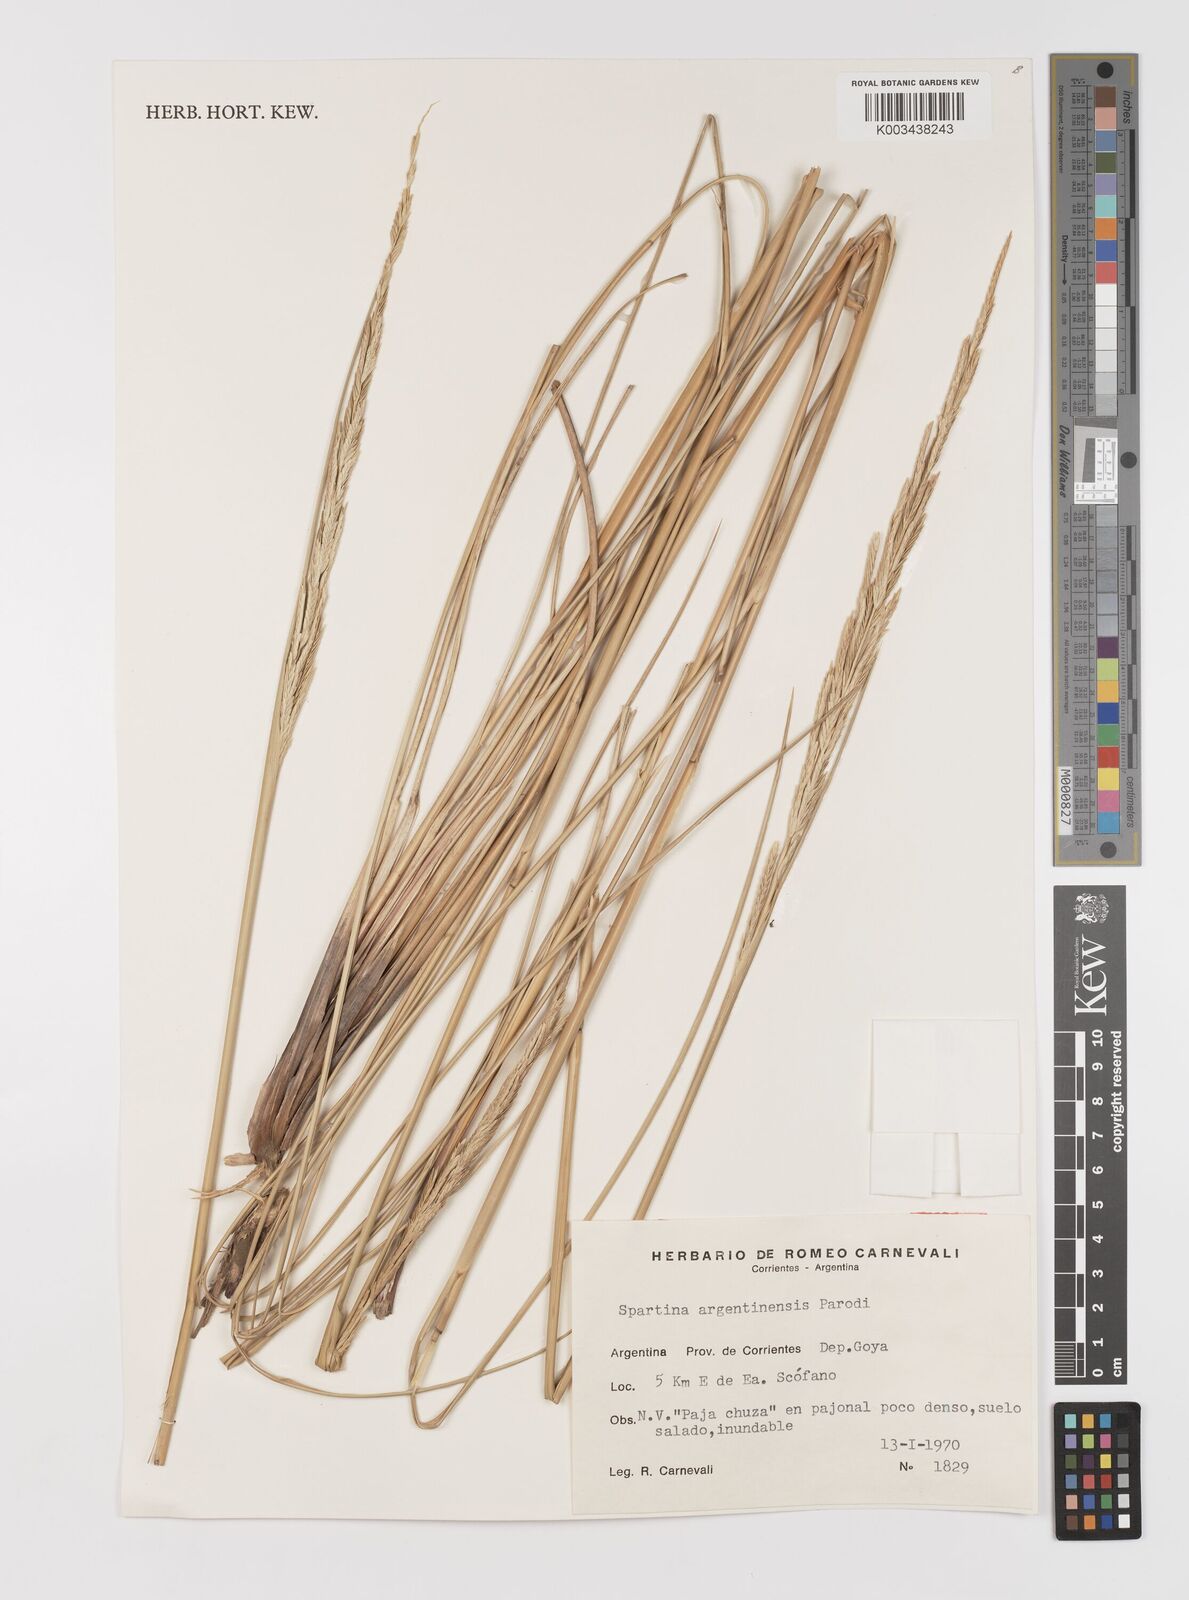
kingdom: Plantae
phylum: Tracheophyta
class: Liliopsida
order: Poales
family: Poaceae
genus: Sporobolus
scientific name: Sporobolus spartinae
